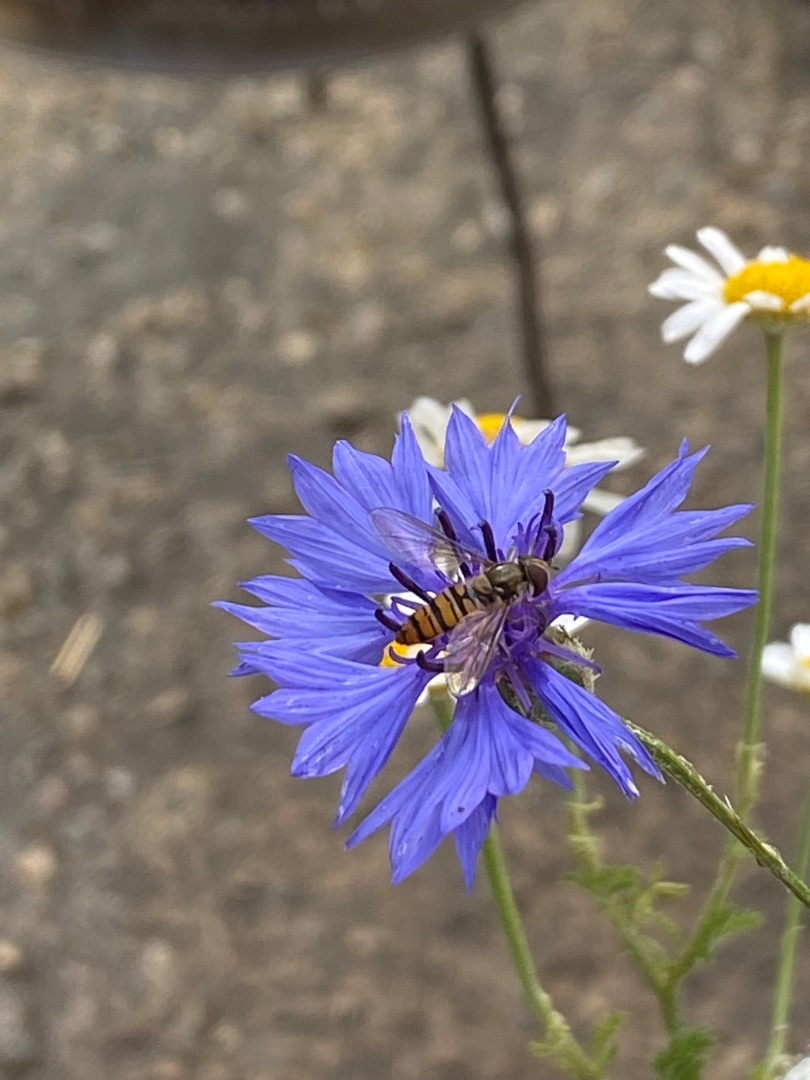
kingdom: Animalia
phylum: Arthropoda
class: Insecta
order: Diptera
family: Syrphidae
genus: Episyrphus
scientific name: Episyrphus balteatus
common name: Dobbeltbåndet svirreflue
